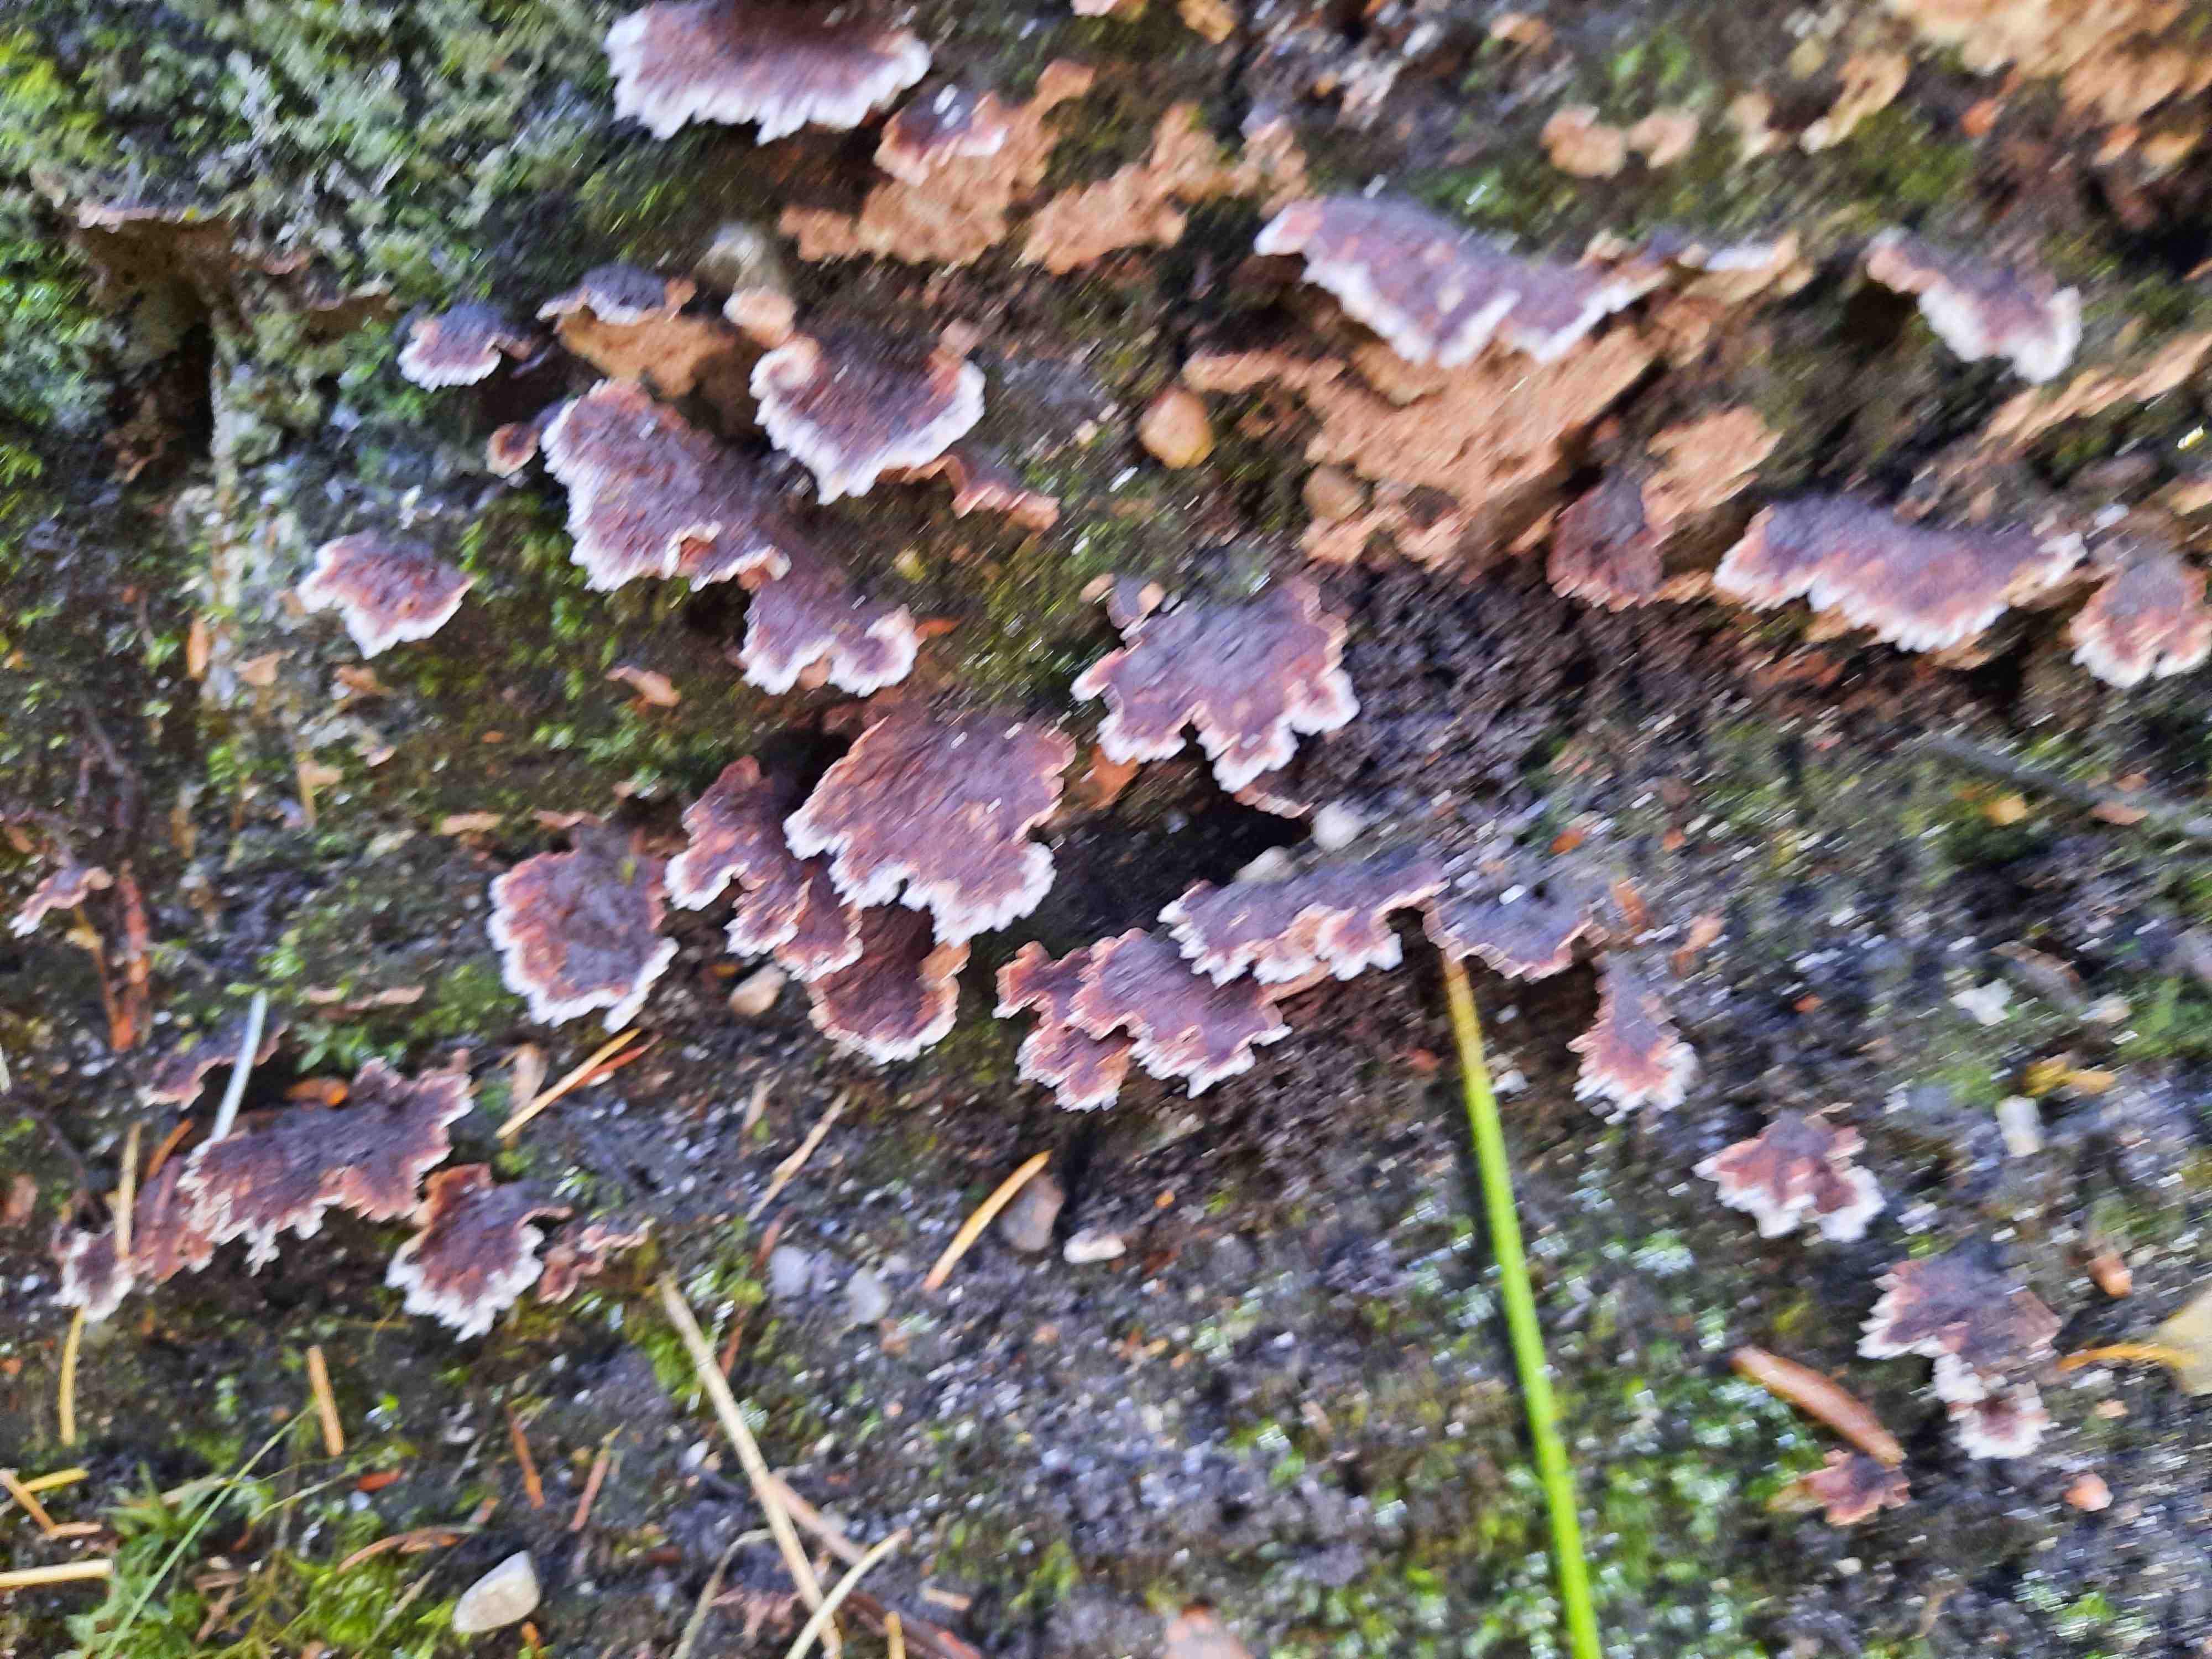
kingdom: Fungi
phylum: Basidiomycota
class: Agaricomycetes
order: Thelephorales
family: Thelephoraceae
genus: Thelephora
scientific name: Thelephora terrestris
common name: fliget frynsesvamp
